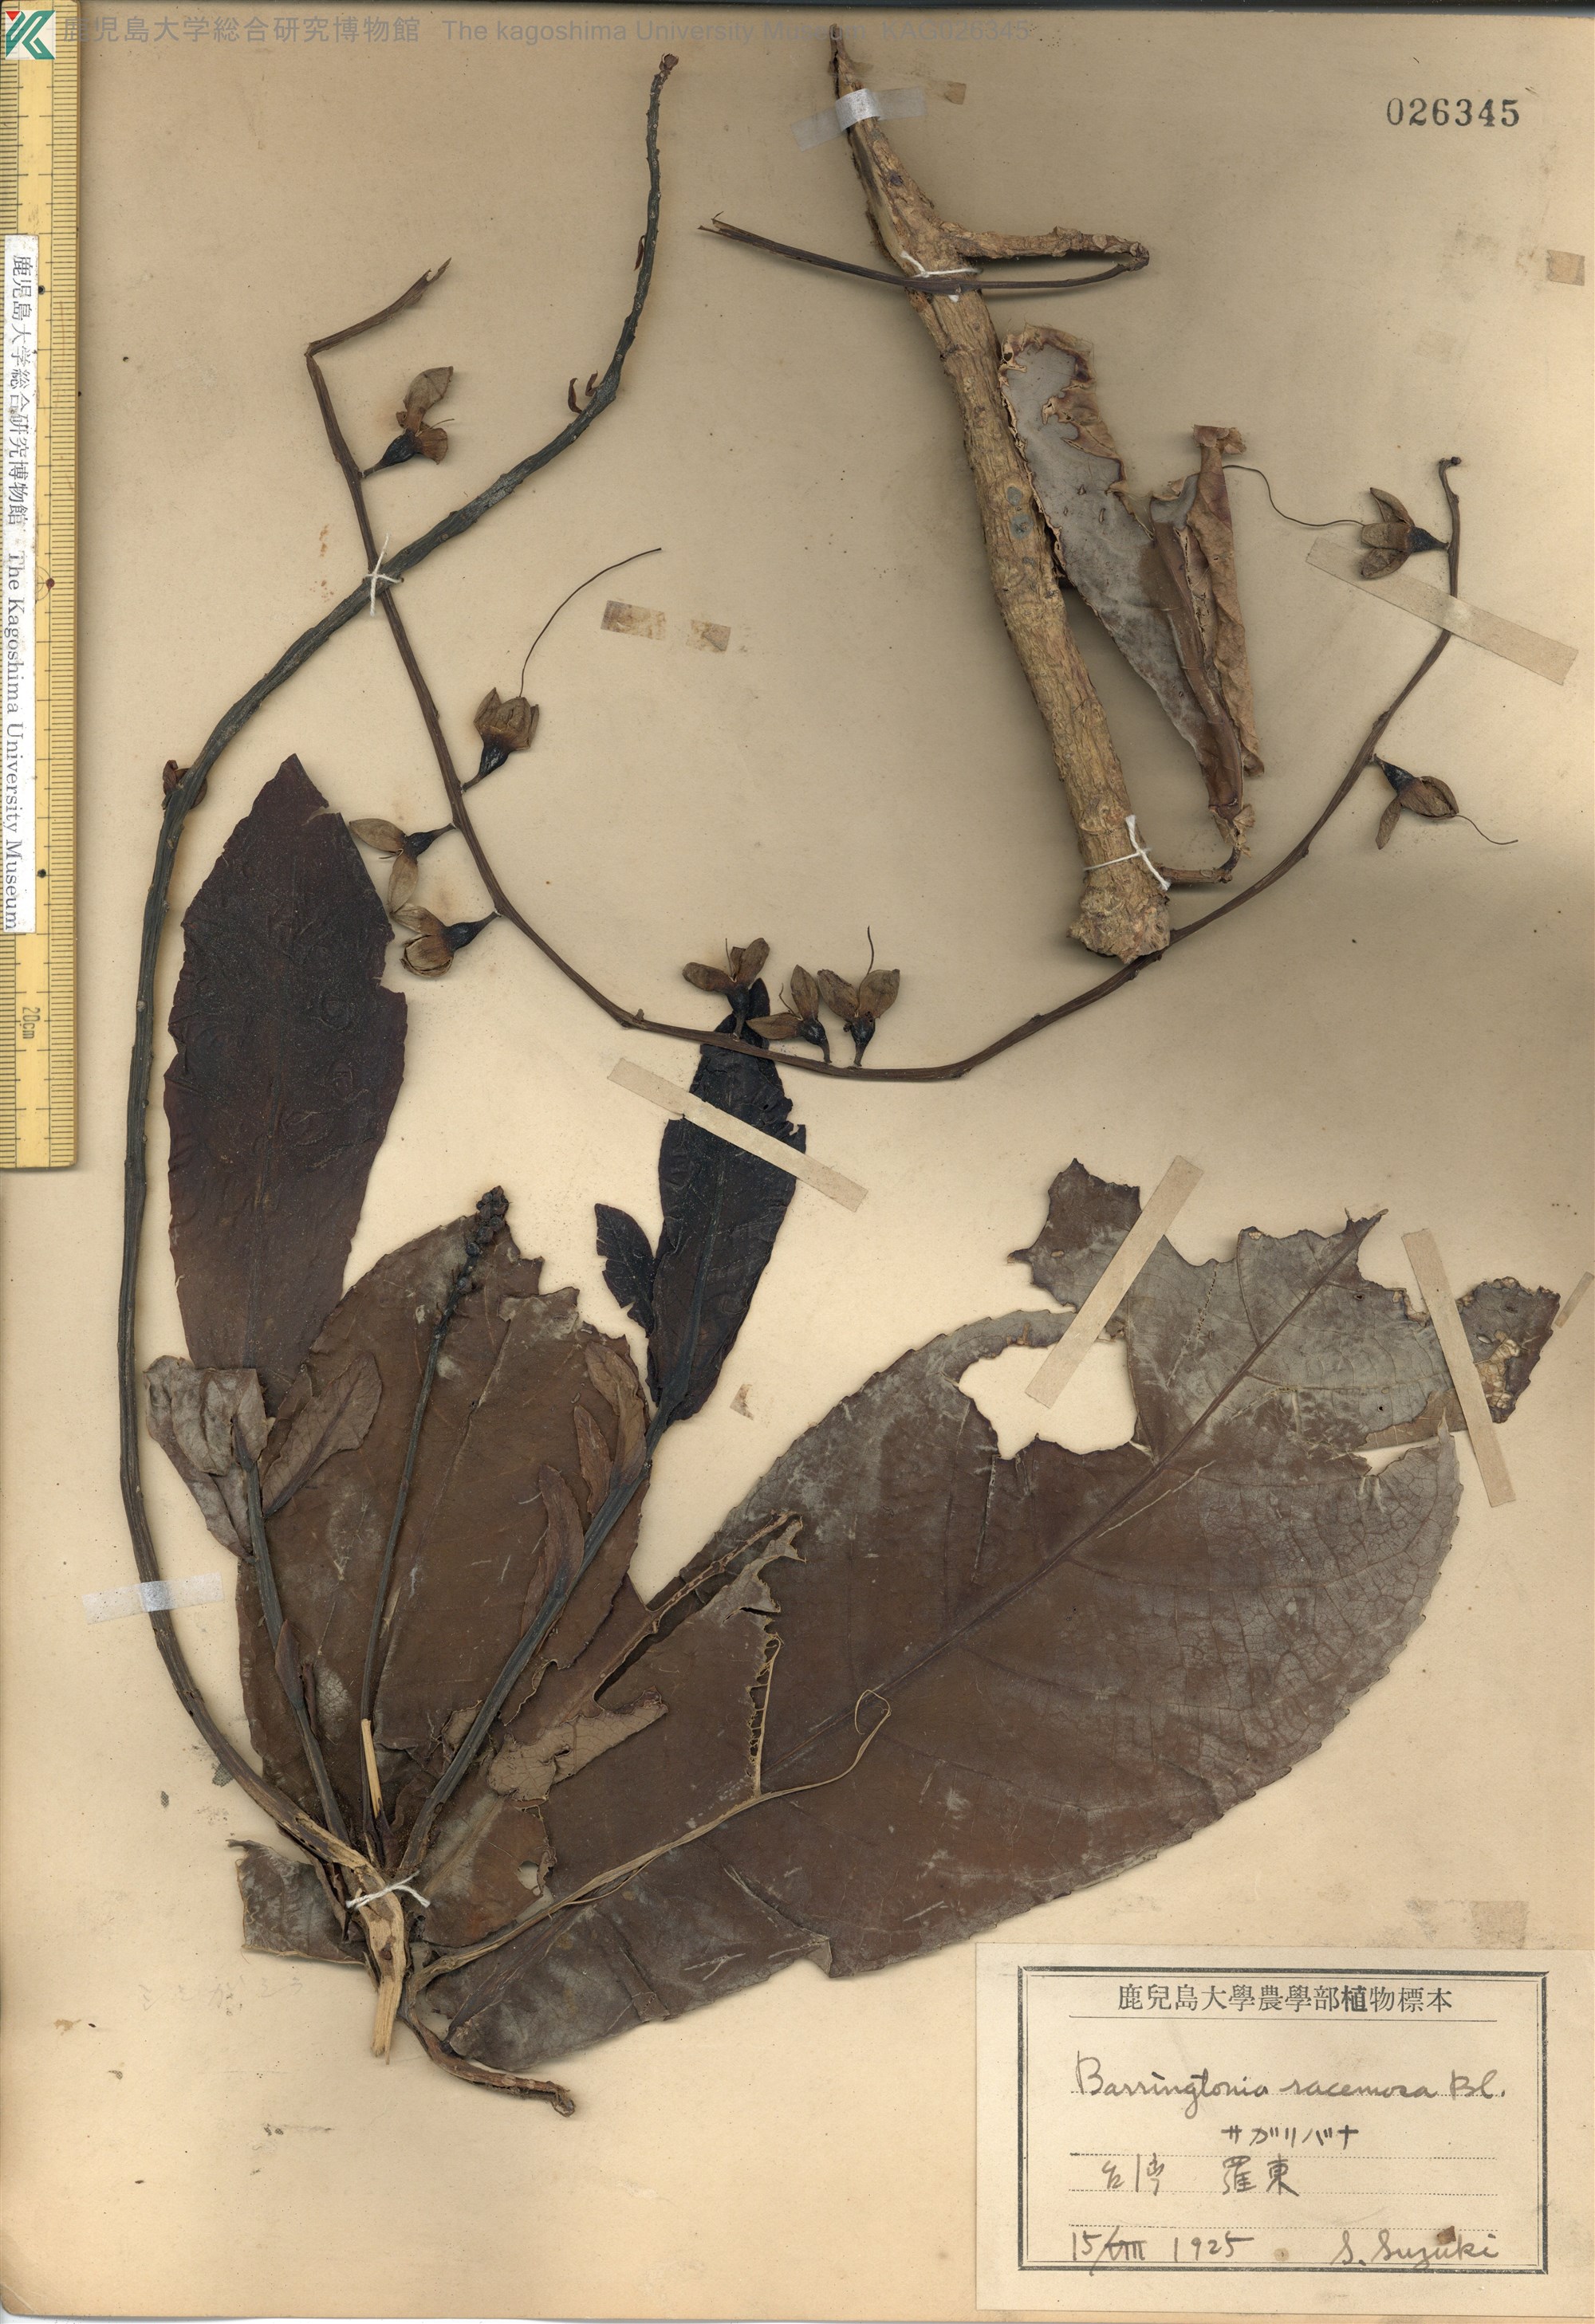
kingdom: Plantae
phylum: Tracheophyta
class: Magnoliopsida
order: Ericales
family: Lecythidaceae
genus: Barringtonia
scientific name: Barringtonia racemosa
